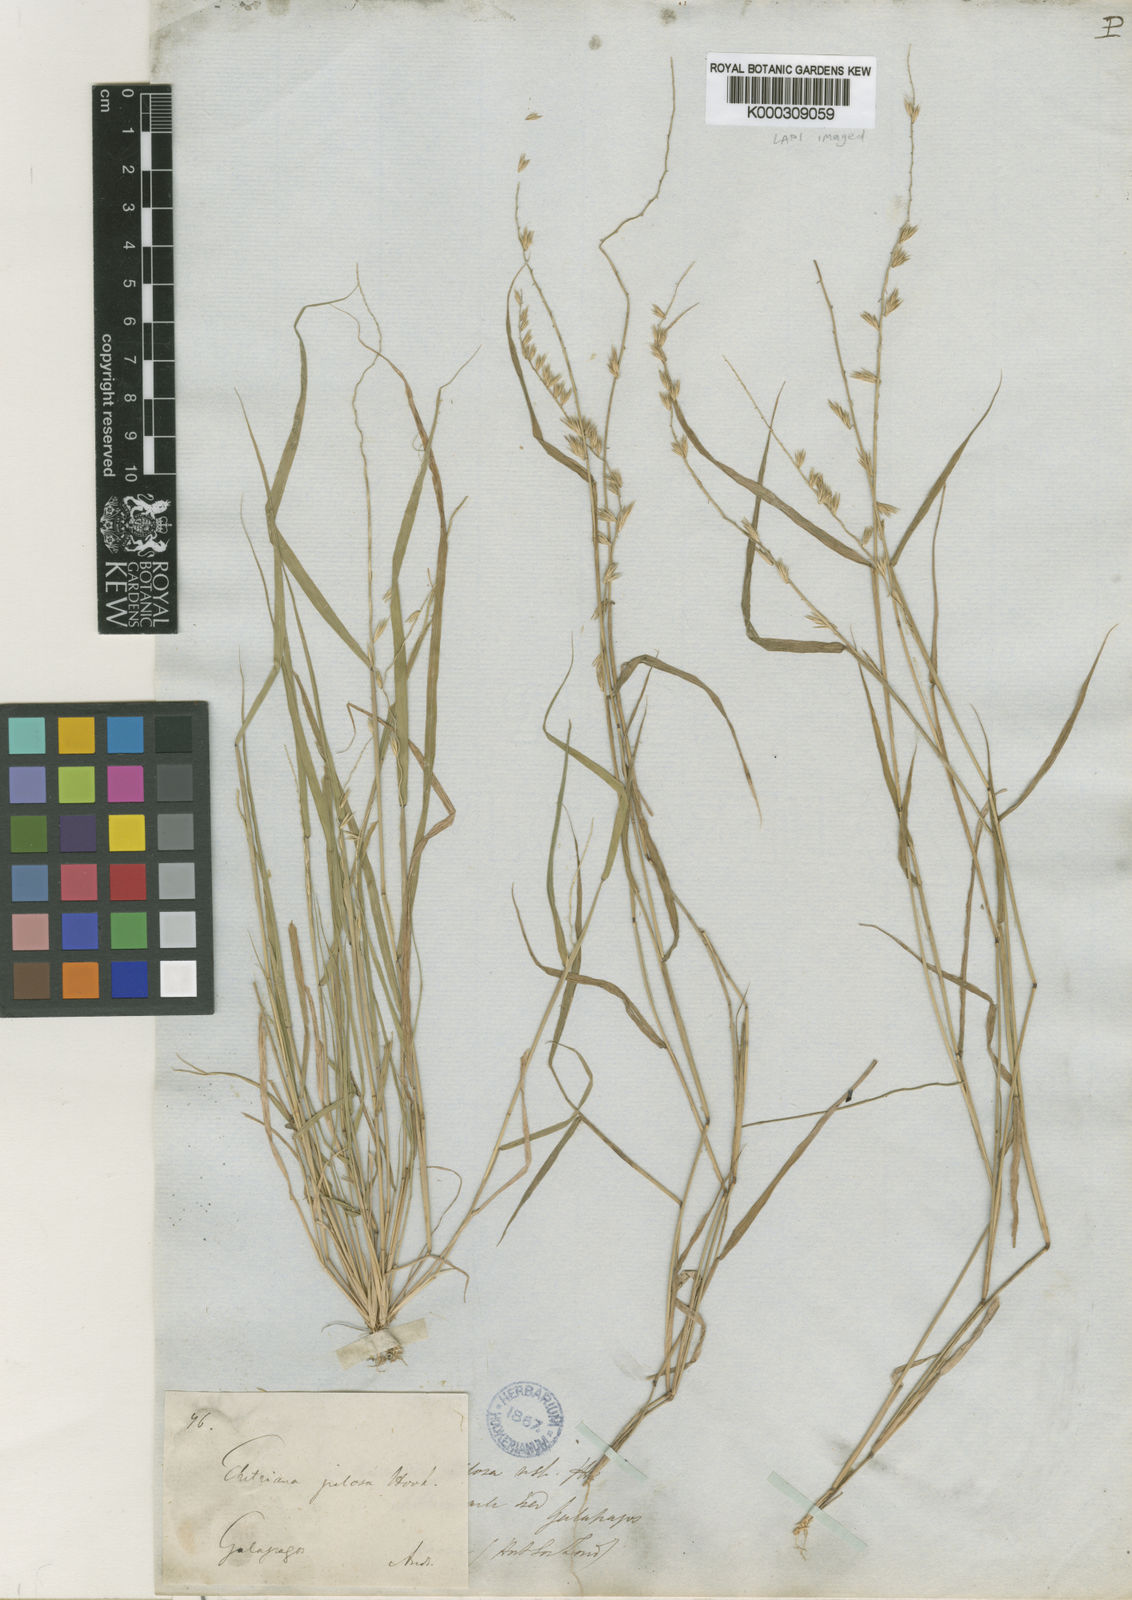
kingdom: Plantae
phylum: Tracheophyta
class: Liliopsida
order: Poales
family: Poaceae
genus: Bouteloua
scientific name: Bouteloua disticha
